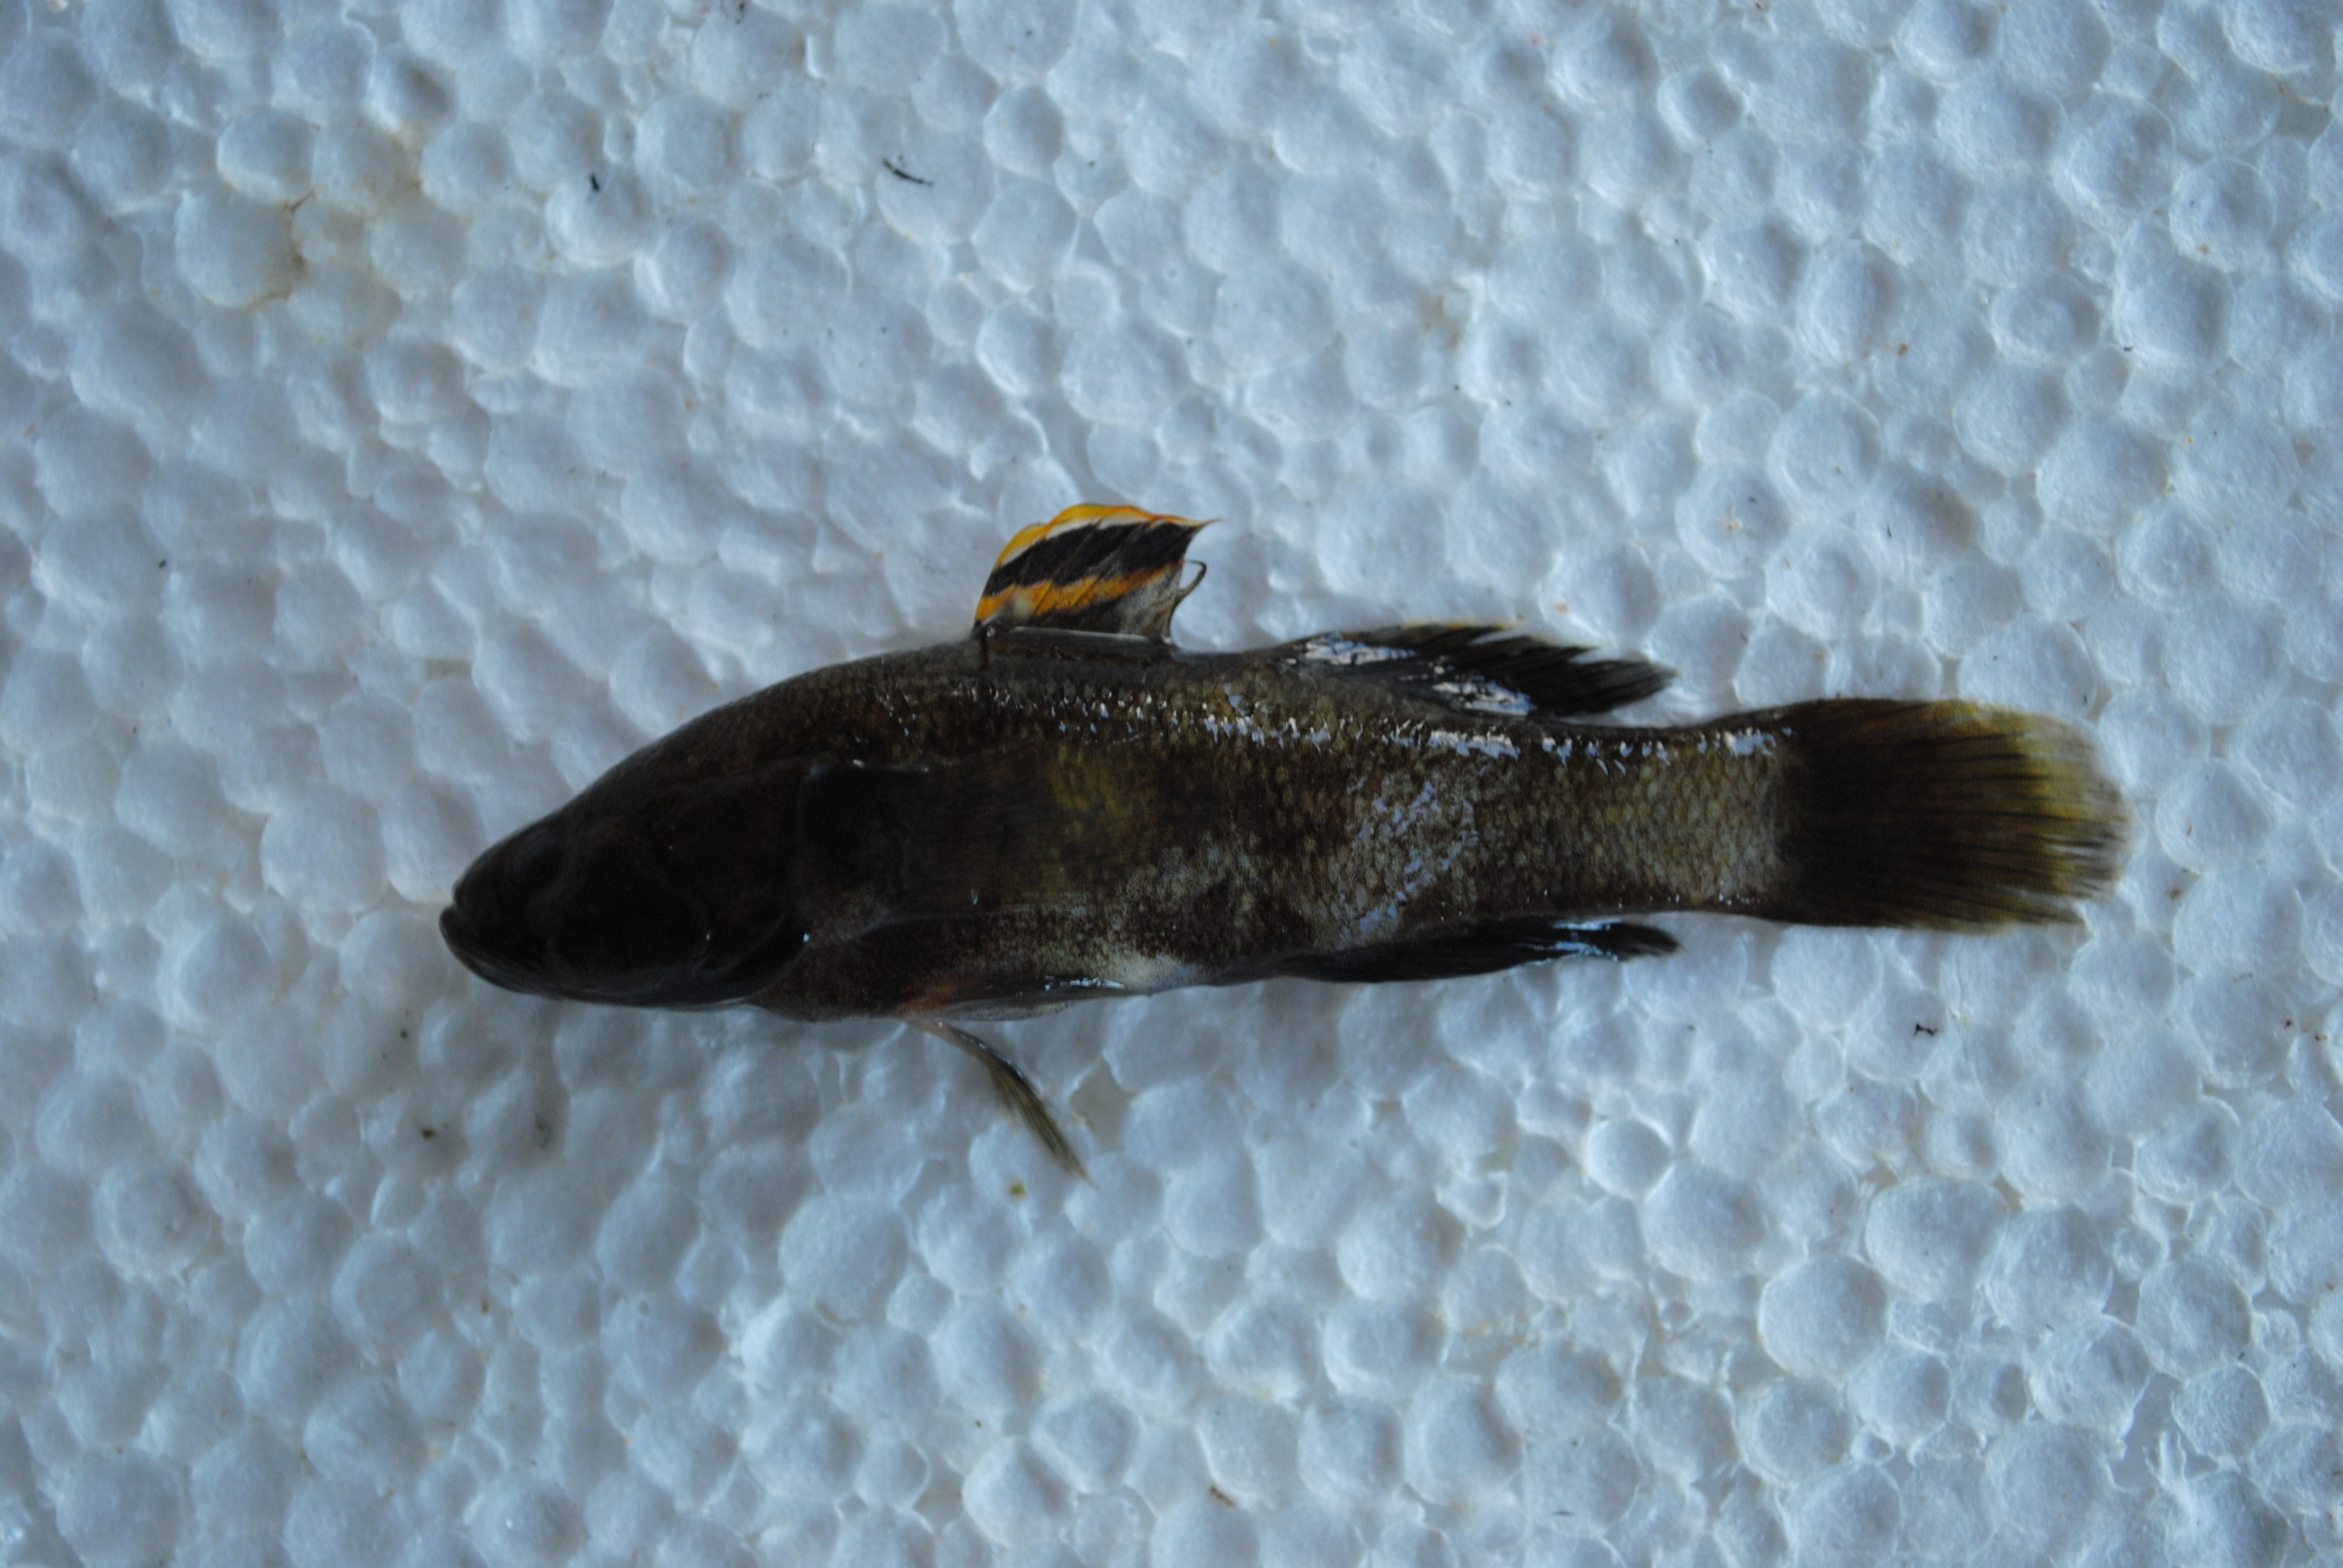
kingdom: Animalia
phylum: Chordata
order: Perciformes
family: Eleotridae
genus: Ophiocara
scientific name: Ophiocara porocephala
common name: Spangled gudgeon
